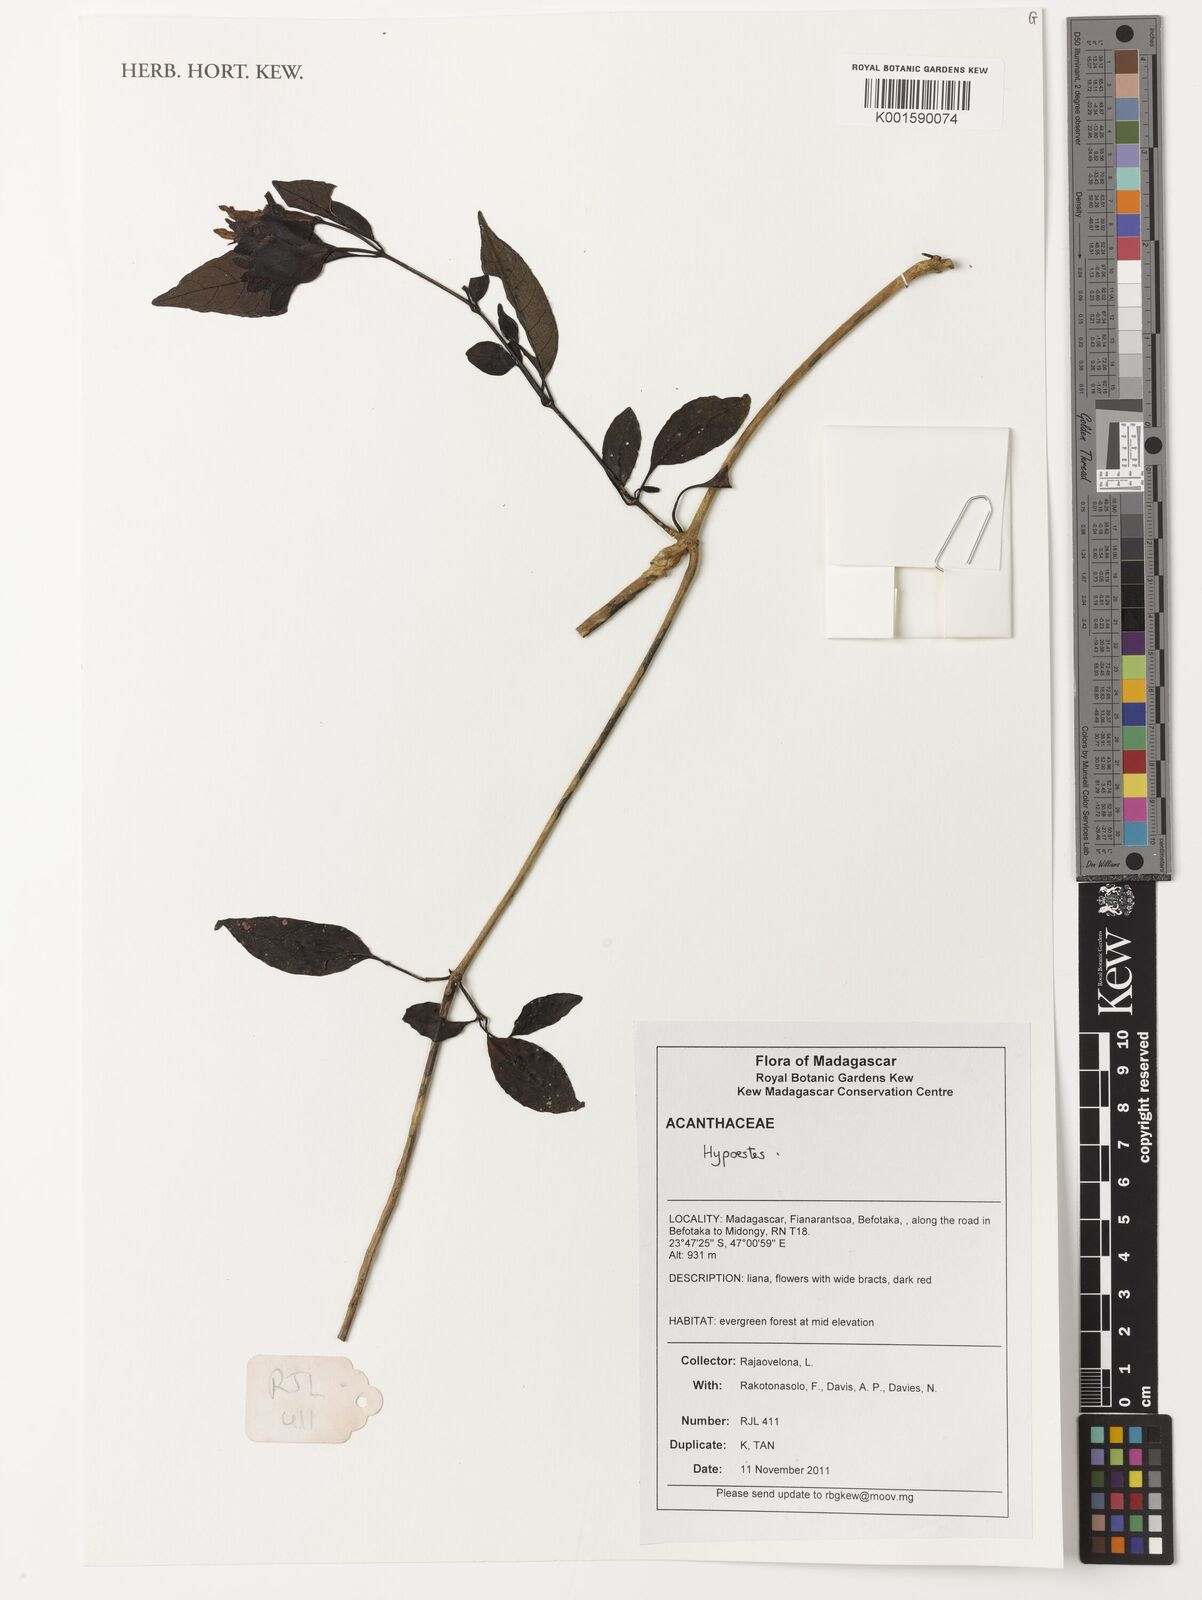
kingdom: Plantae
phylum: Tracheophyta
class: Magnoliopsida
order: Lamiales
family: Acanthaceae
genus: Hypoestes
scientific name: Hypoestes
